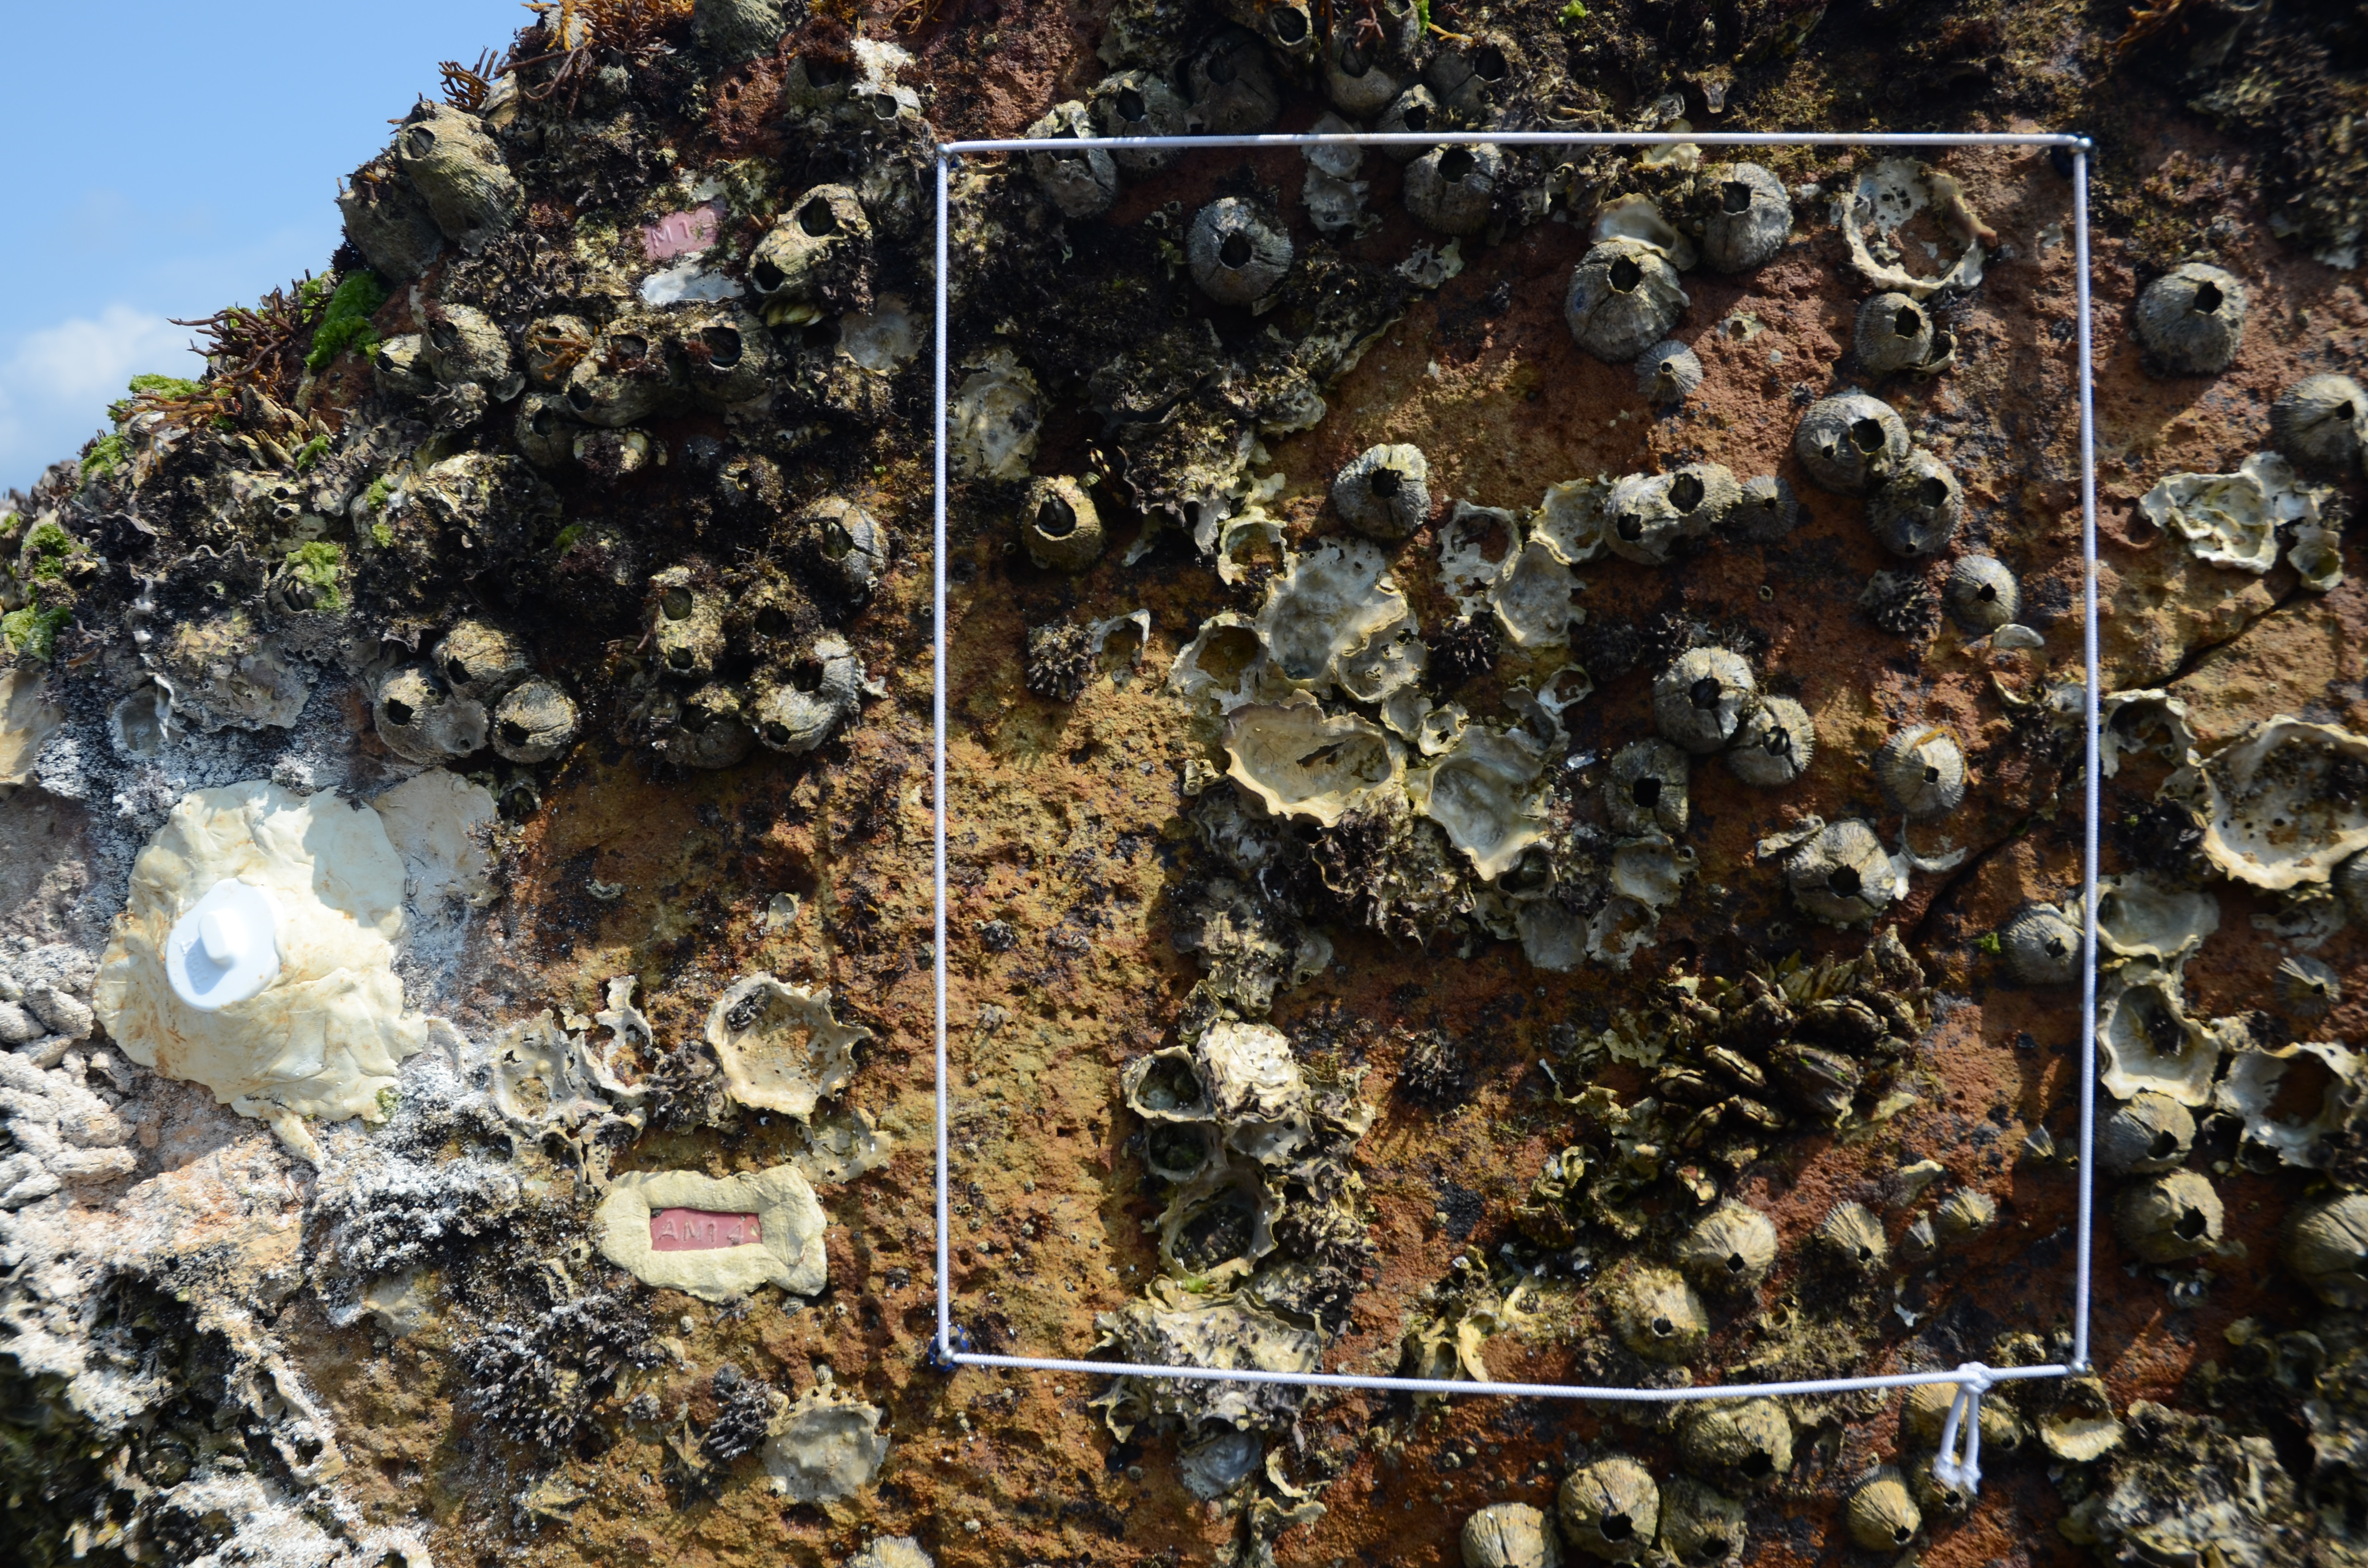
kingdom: Chromista
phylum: Ochrophyta
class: Phaeophyceae
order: Ishigeales
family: Ishigeaceae
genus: Ishige
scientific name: Ishige okamurae
